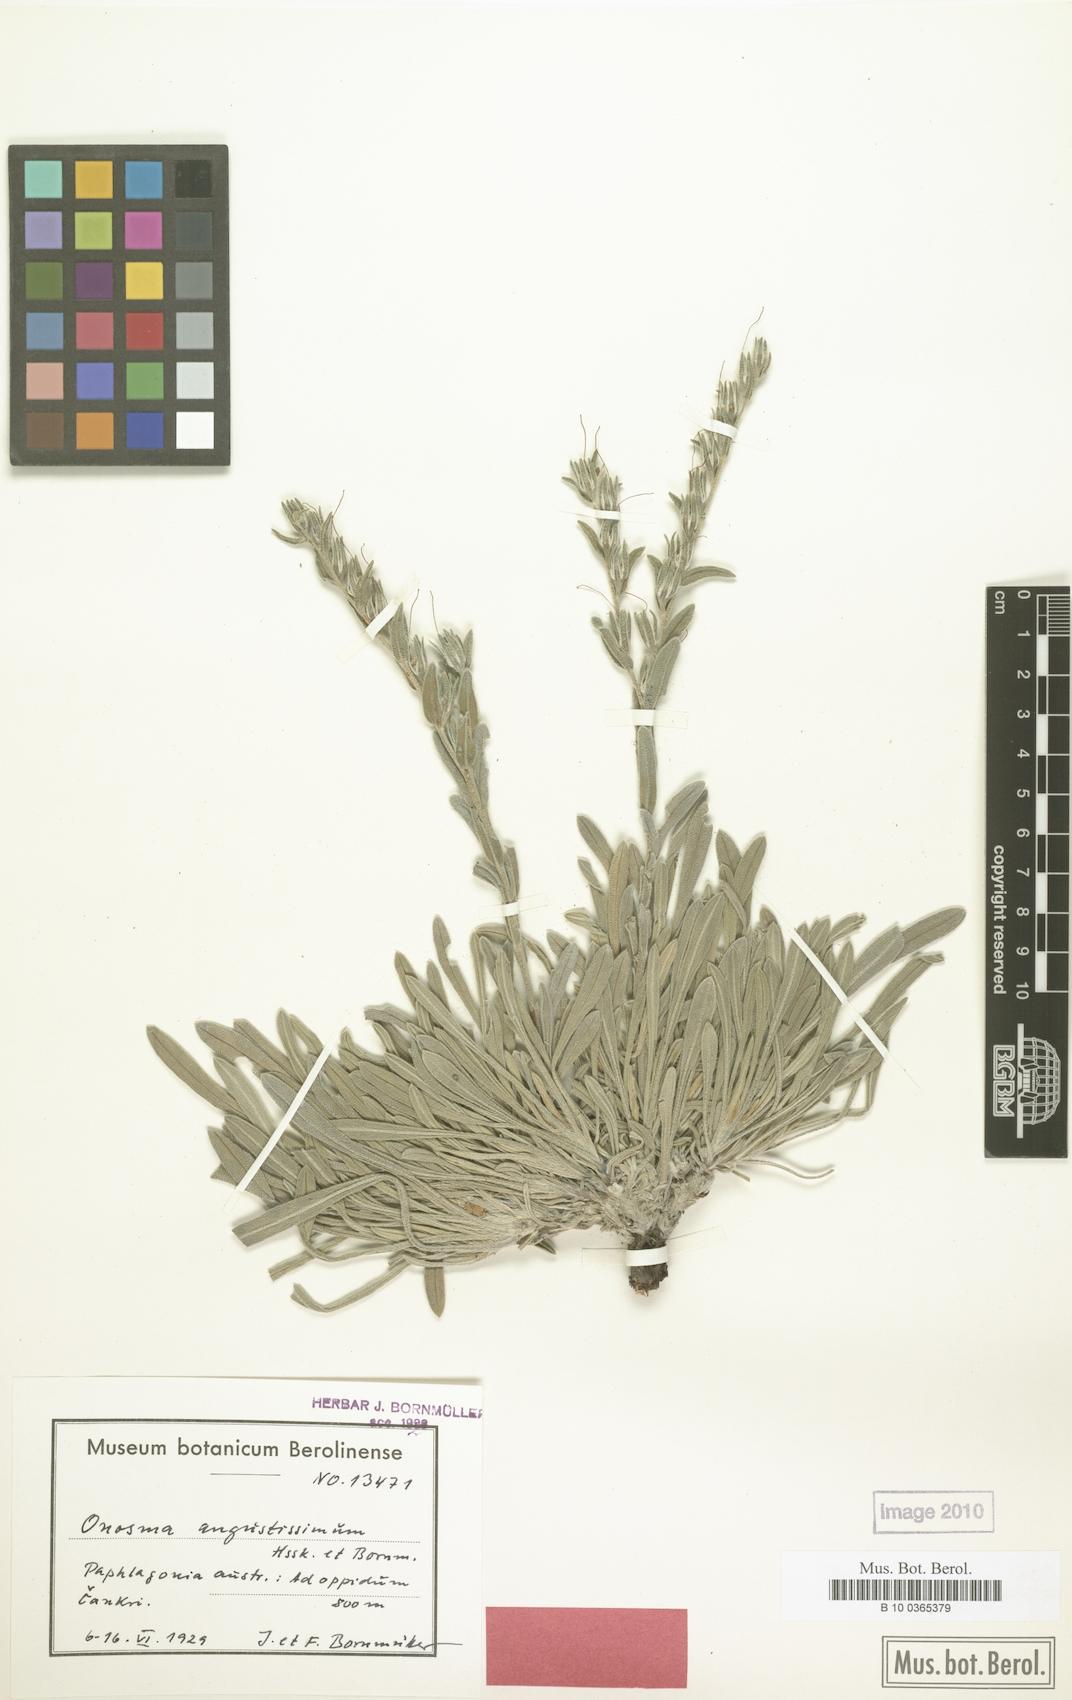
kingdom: Plantae
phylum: Tracheophyta
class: Magnoliopsida
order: Boraginales
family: Boraginaceae
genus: Onosma
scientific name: Onosma angustissima
